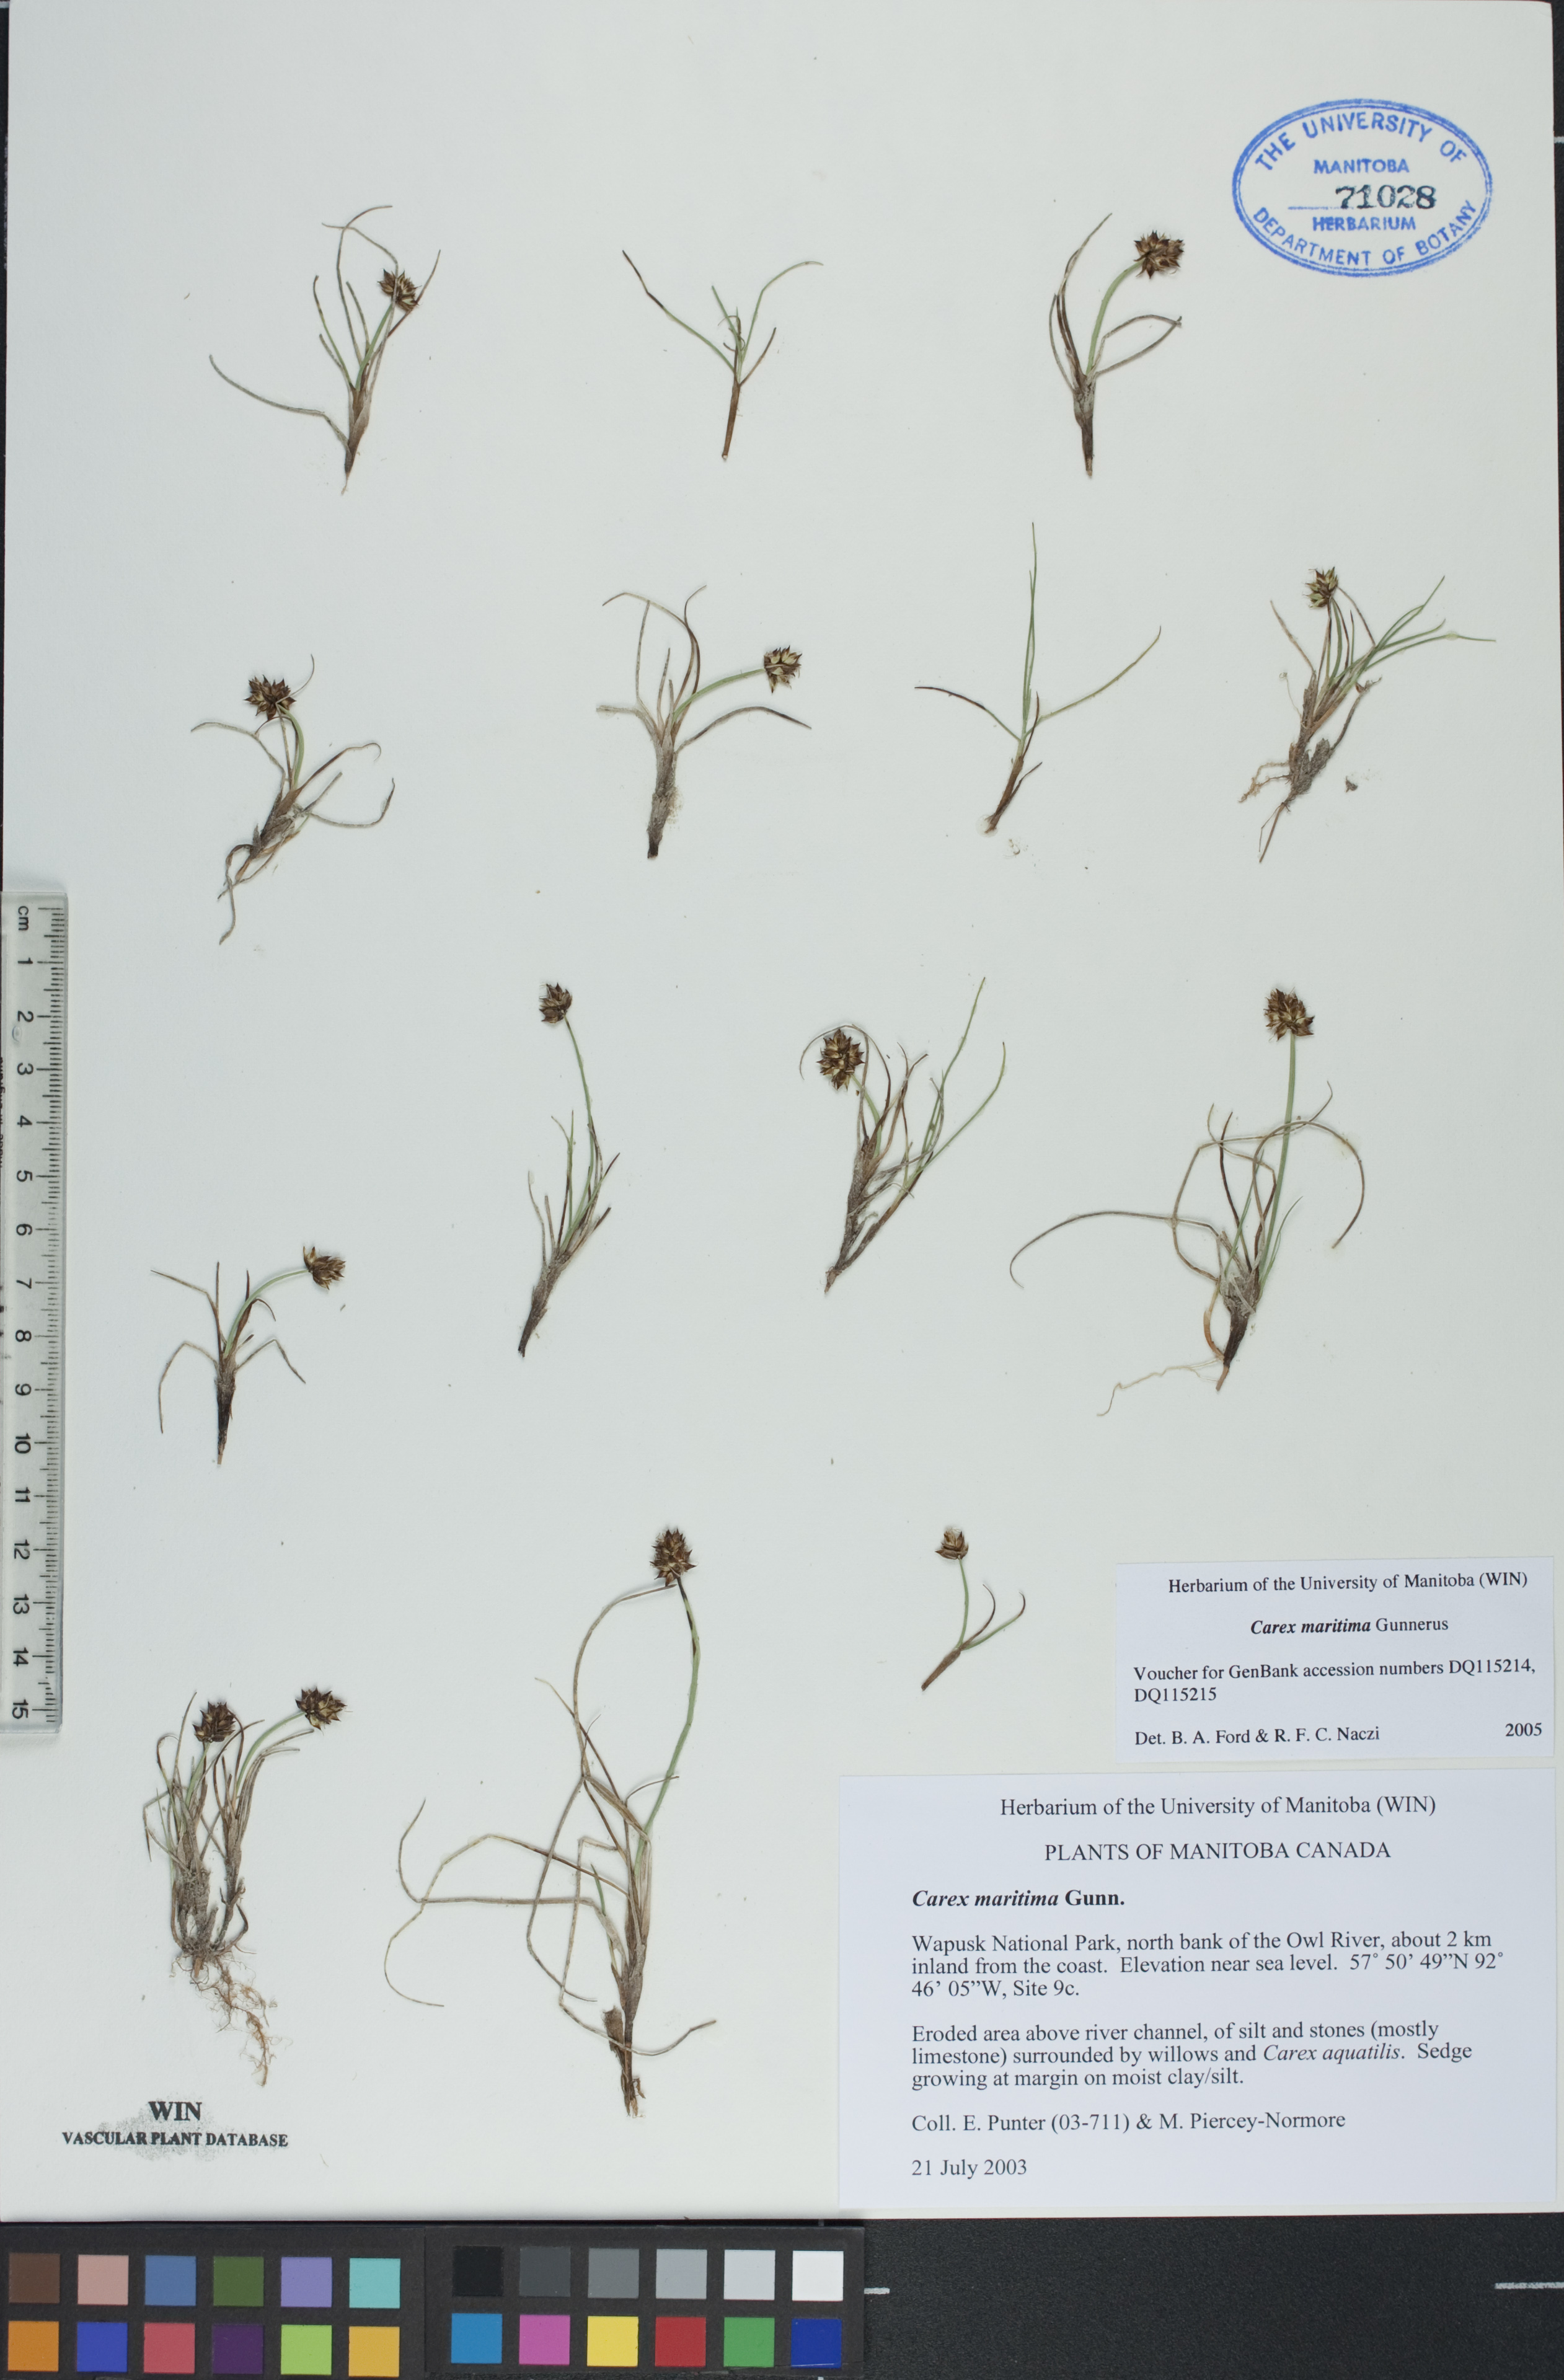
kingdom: Plantae
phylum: Tracheophyta
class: Liliopsida
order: Poales
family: Cyperaceae
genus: Carex
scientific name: Carex maritima
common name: Curved sedge
